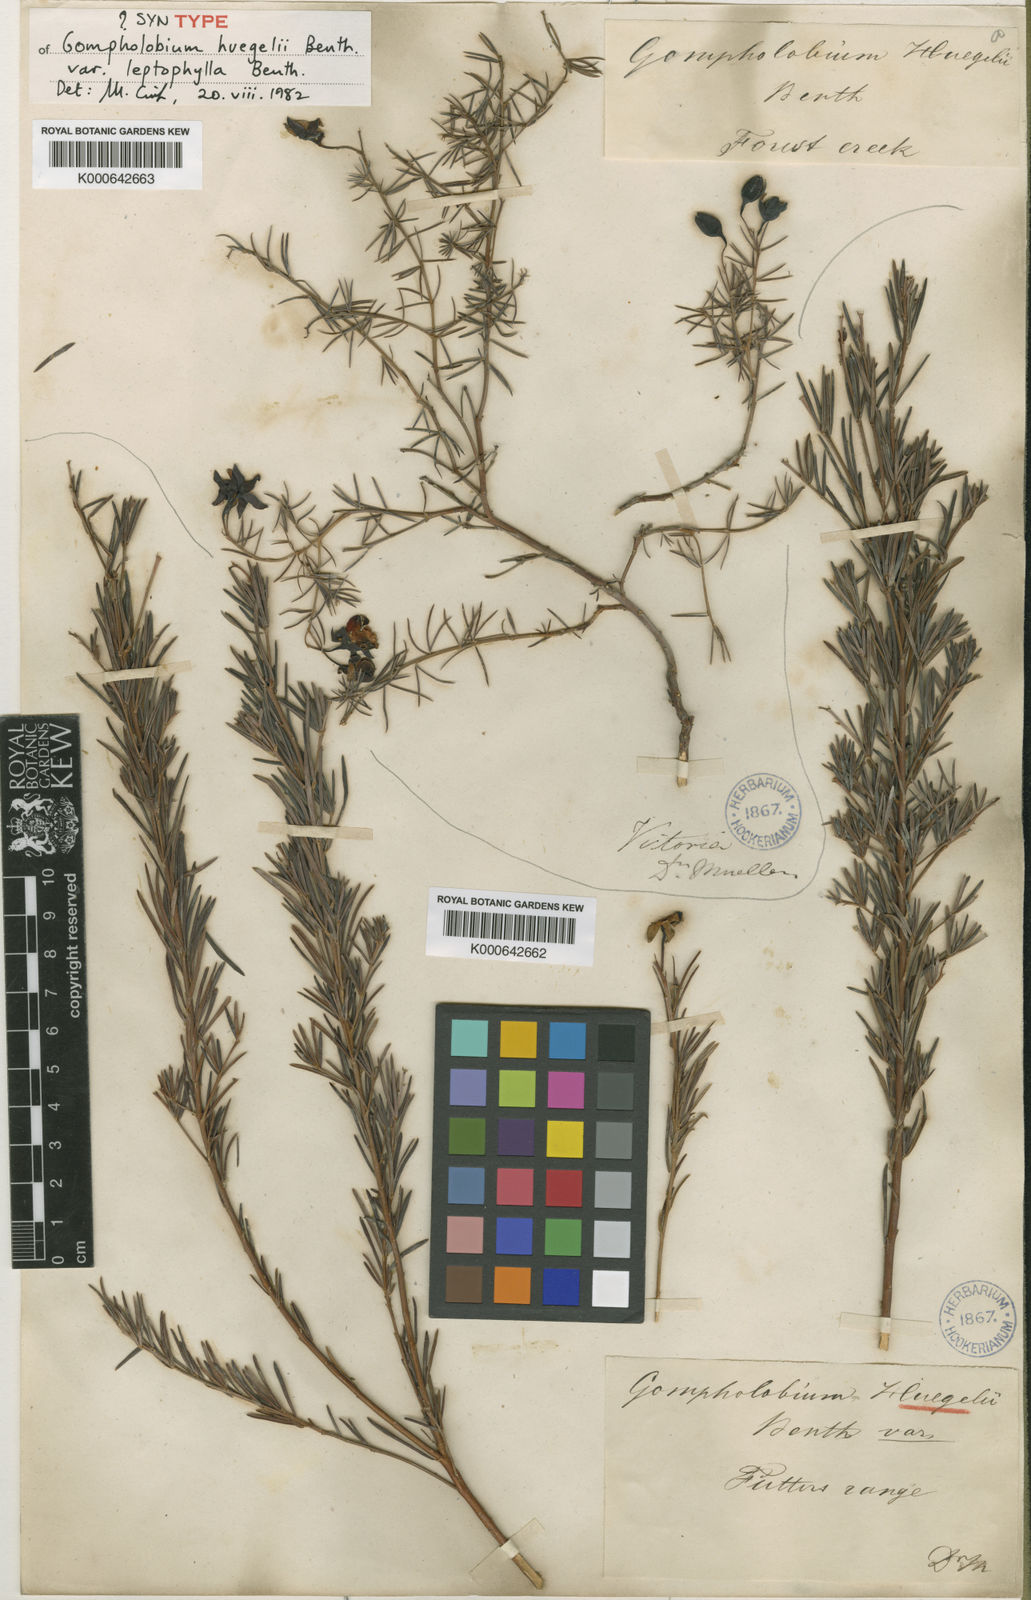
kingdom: Plantae
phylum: Tracheophyta
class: Magnoliopsida
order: Fabales
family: Fabaceae
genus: Gompholobium
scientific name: Gompholobium huegelii
